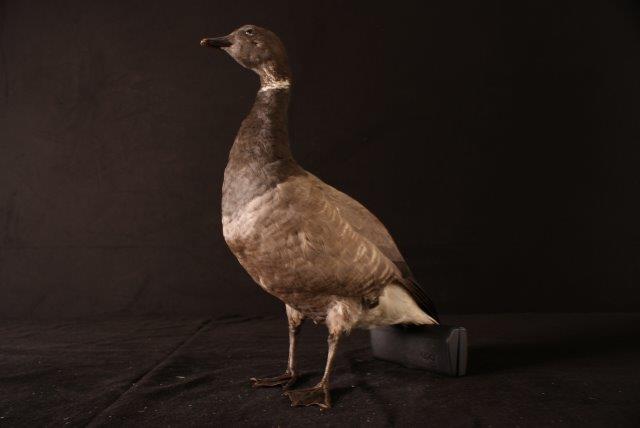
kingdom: Animalia
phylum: Chordata
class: Aves
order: Anseriformes
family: Anatidae
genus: Branta
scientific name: Branta bernicla
